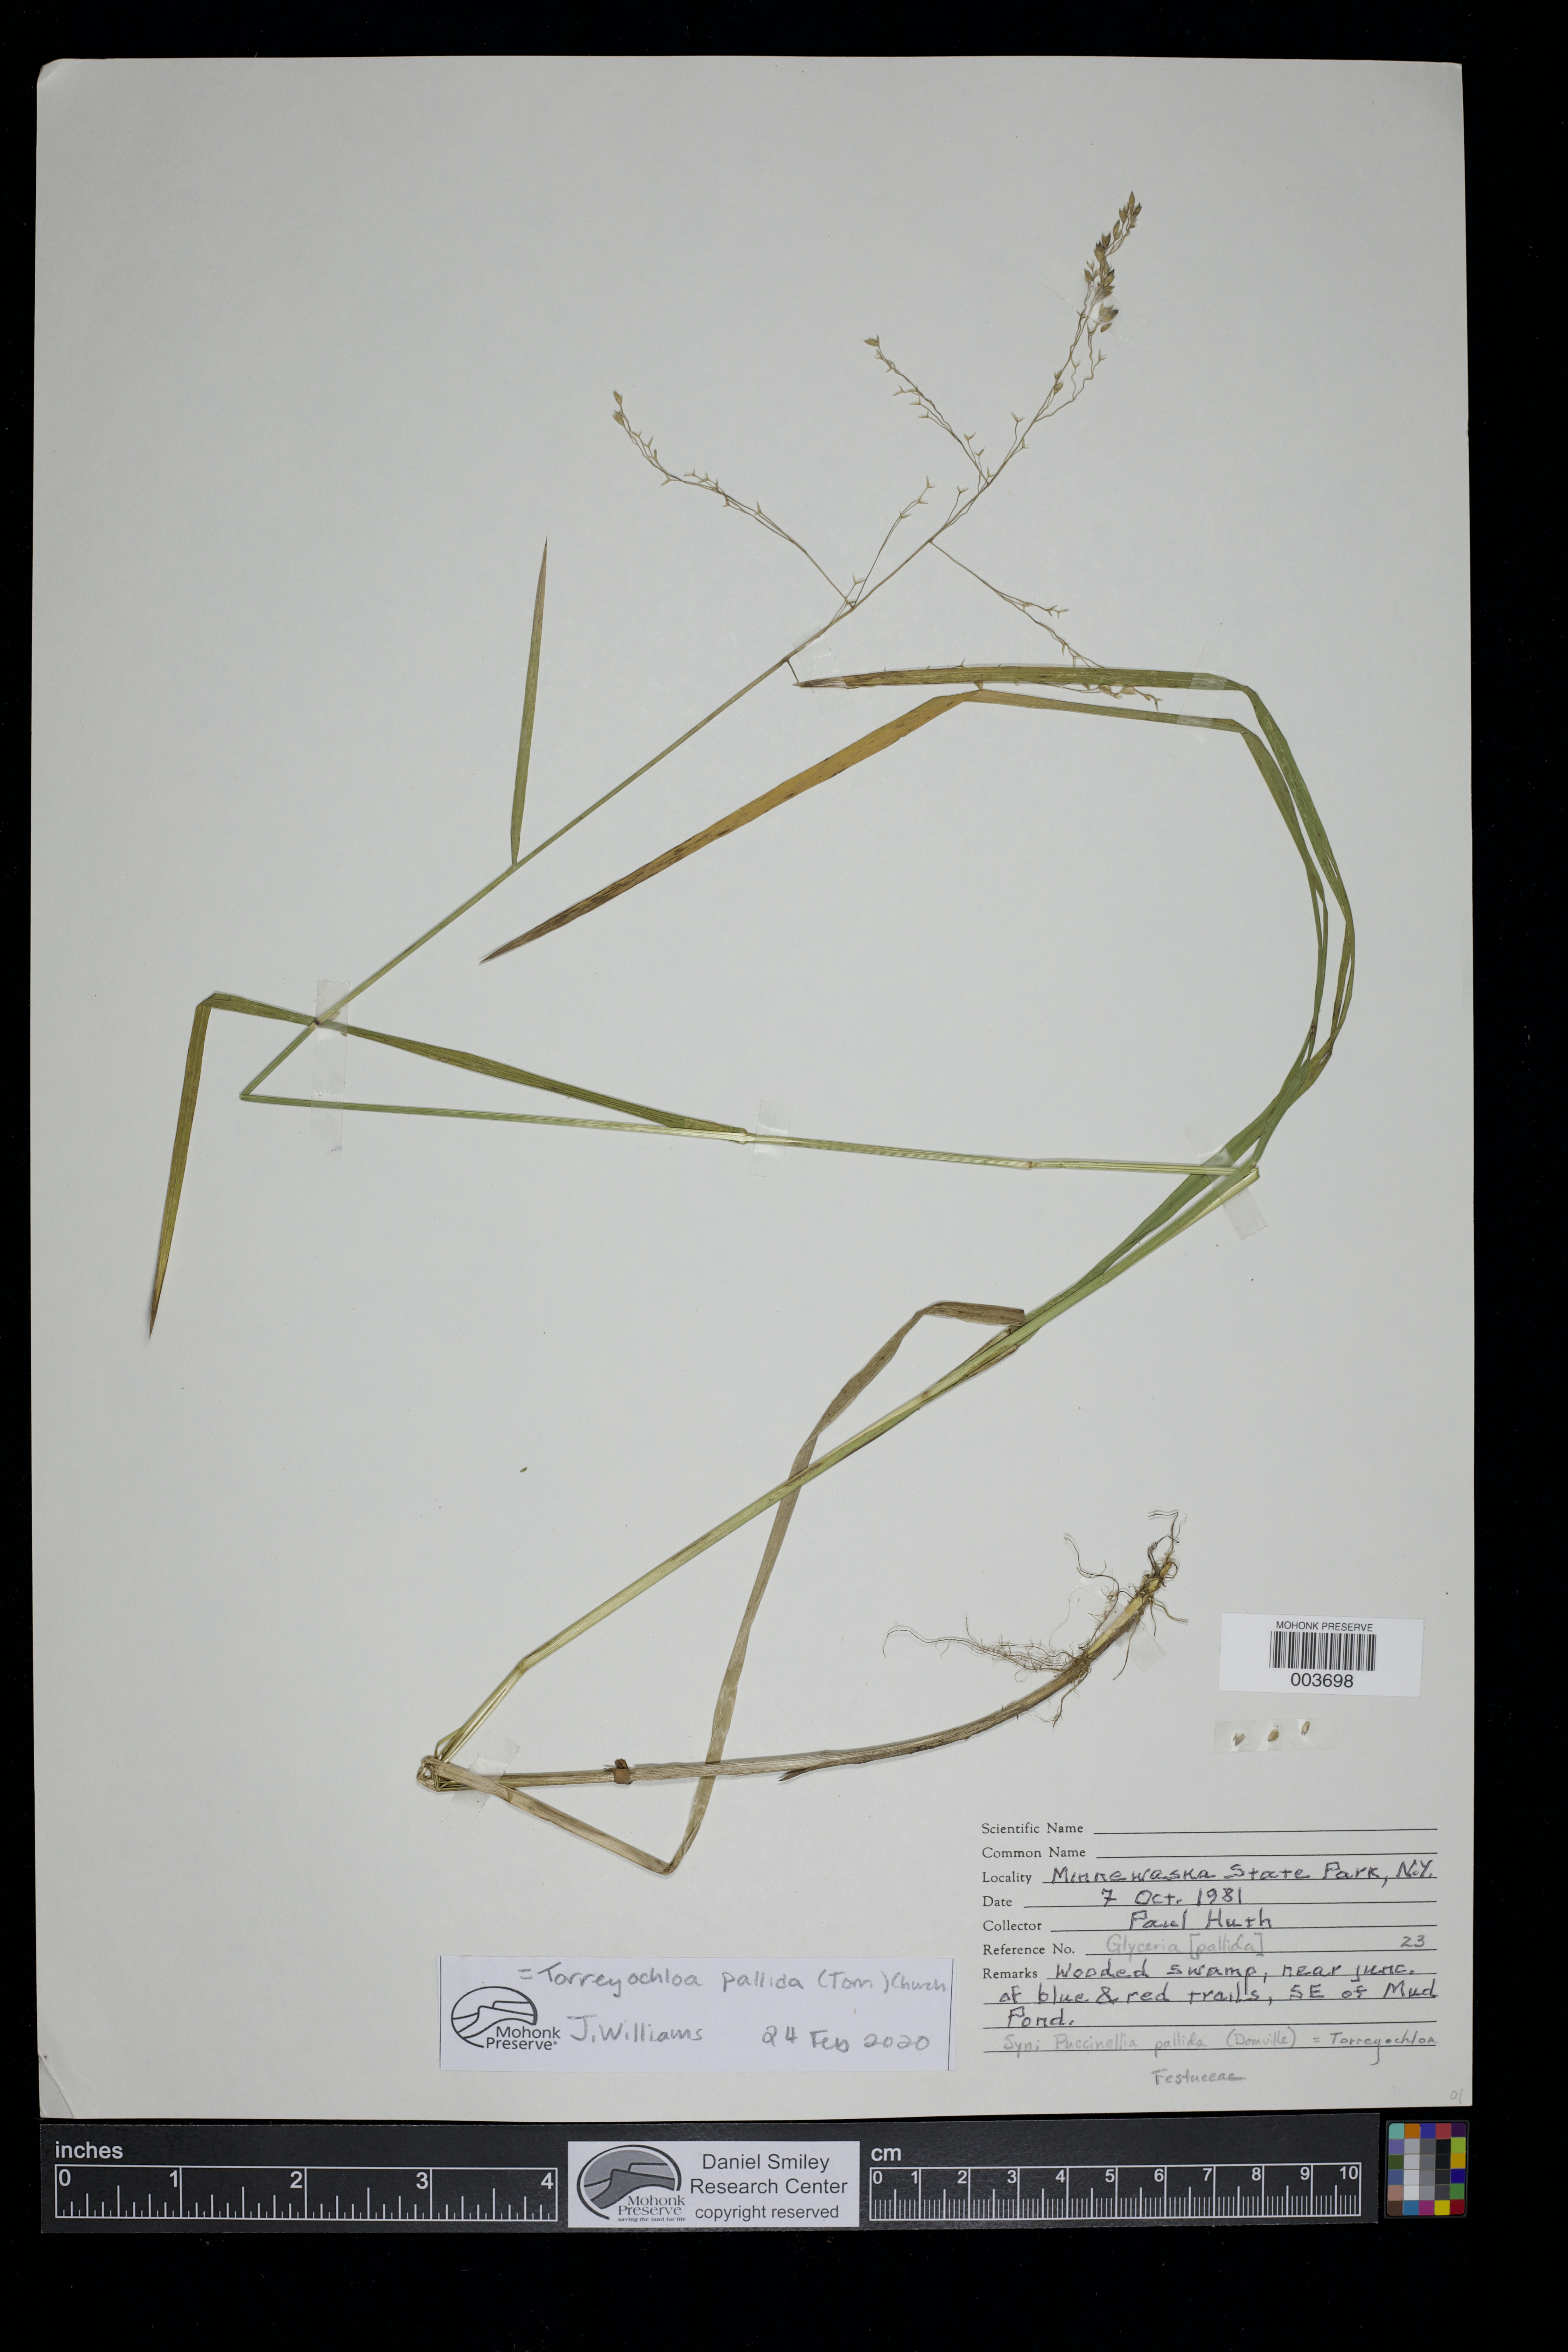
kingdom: Plantae
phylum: Tracheophyta
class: Liliopsida
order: Poales
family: Poaceae
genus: Torreyochloa
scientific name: Torreyochloa pallida
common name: Pale false mannagrass
